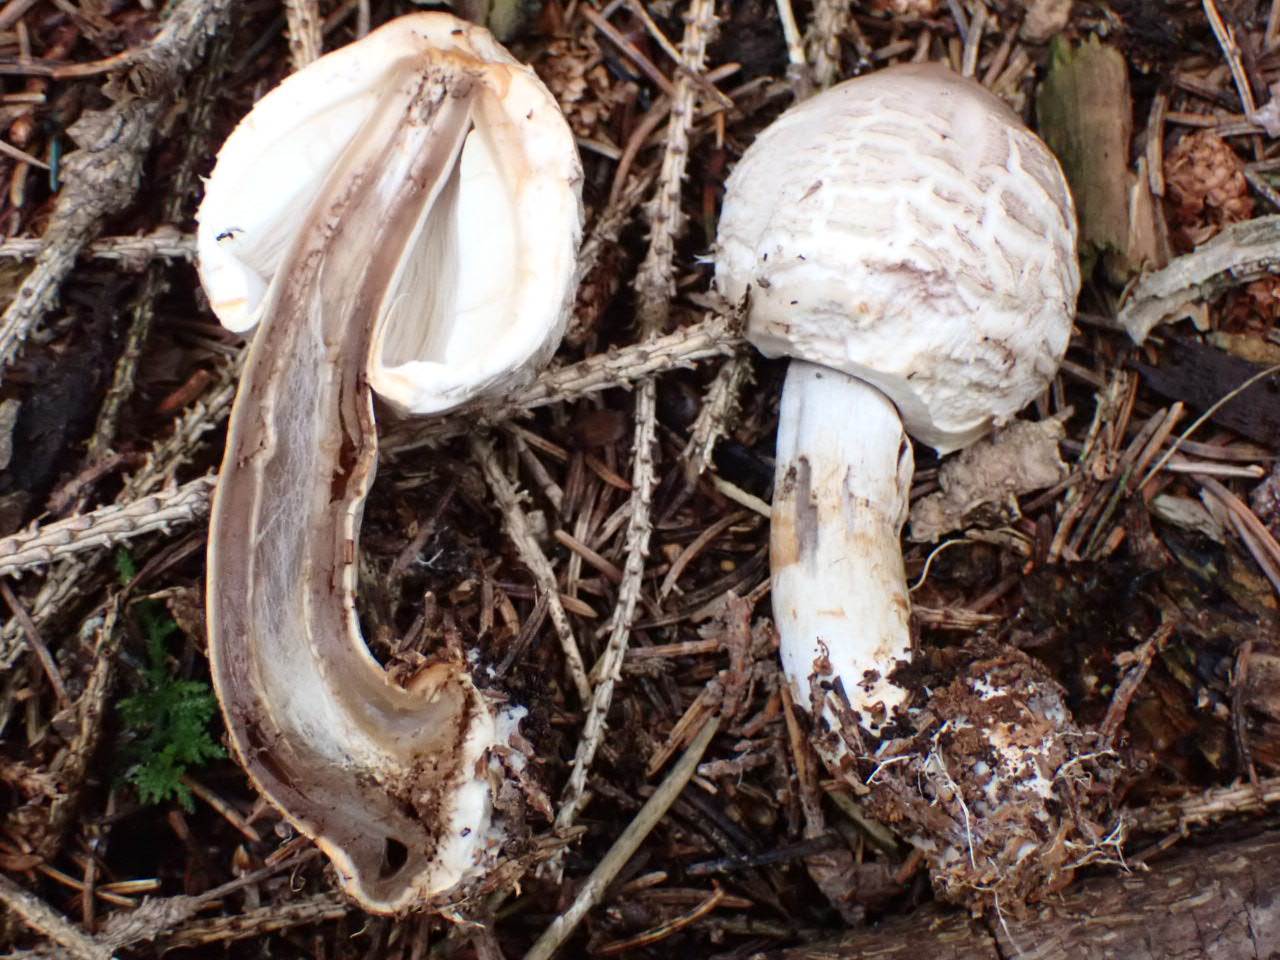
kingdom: Fungi
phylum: Basidiomycota
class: Agaricomycetes
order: Agaricales
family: Agaricaceae
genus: Chlorophyllum
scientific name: Chlorophyllum
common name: rabarberhat
